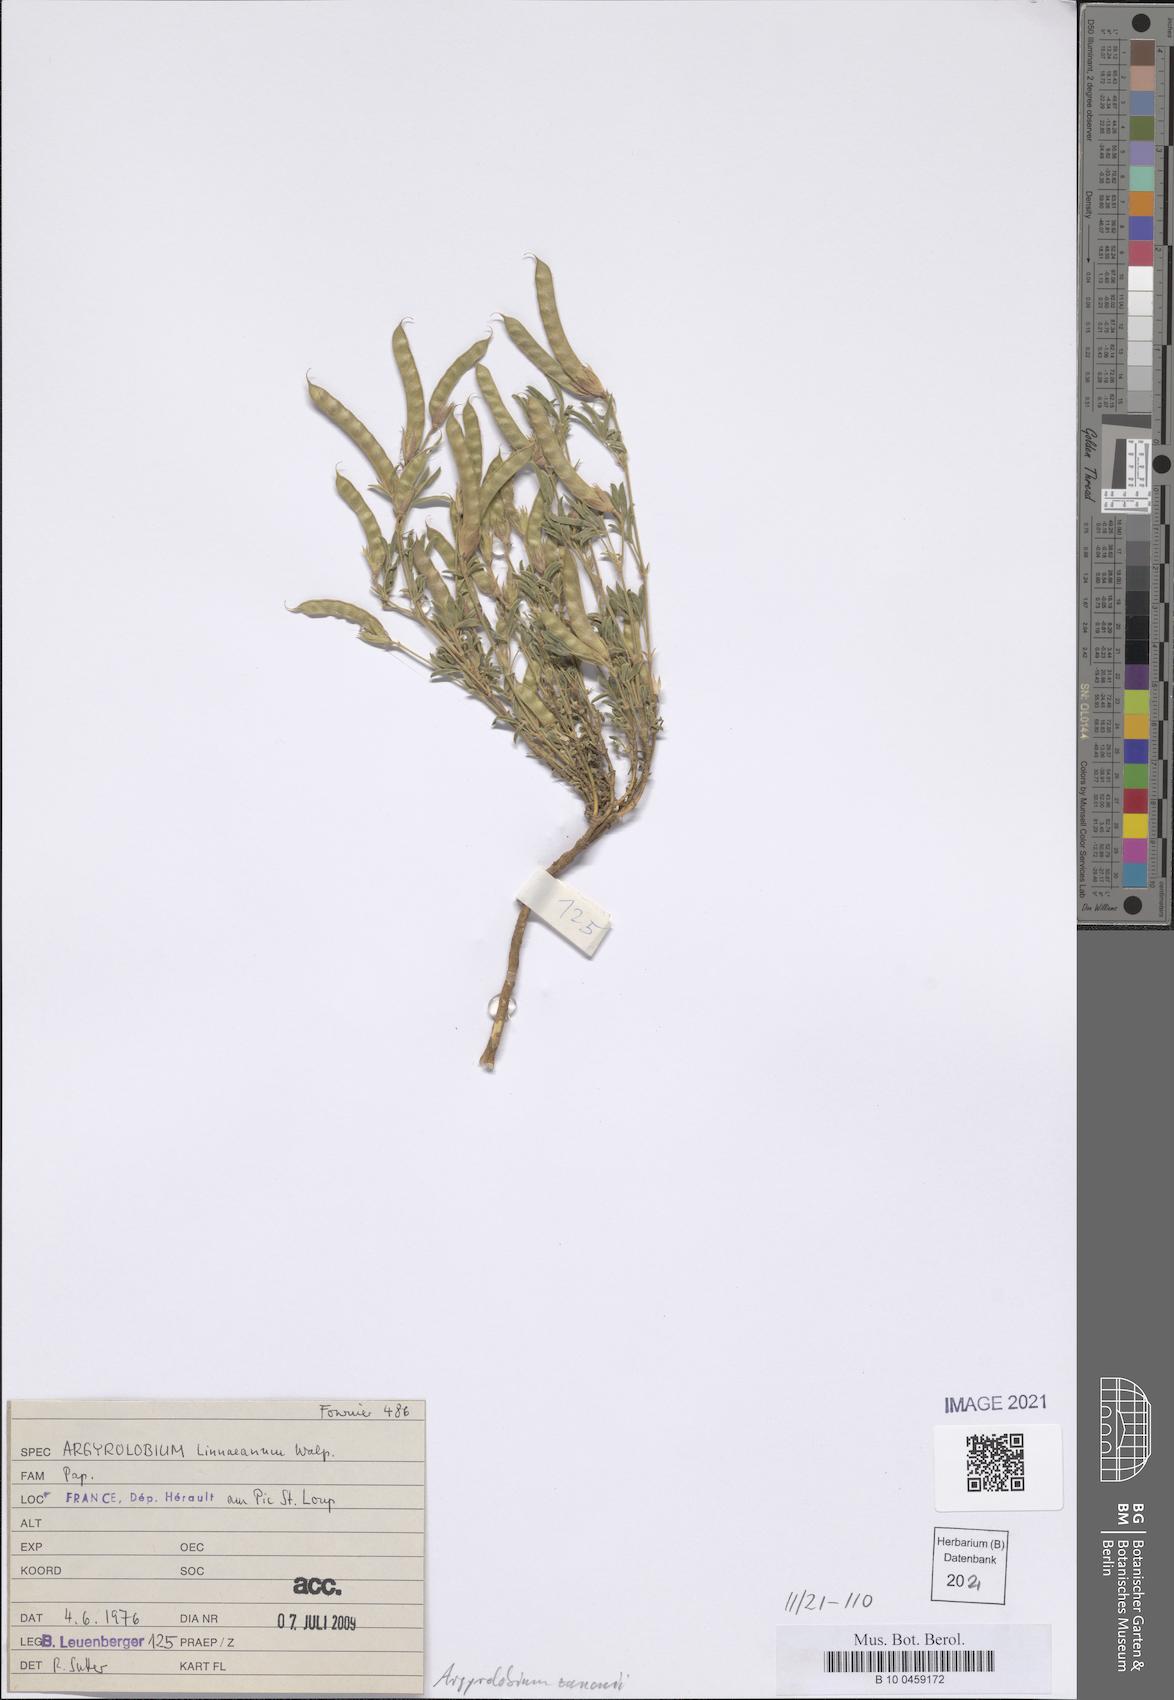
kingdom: Plantae
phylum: Tracheophyta
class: Magnoliopsida
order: Fabales
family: Fabaceae
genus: Argyrolobium
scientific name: Argyrolobium zanonii
